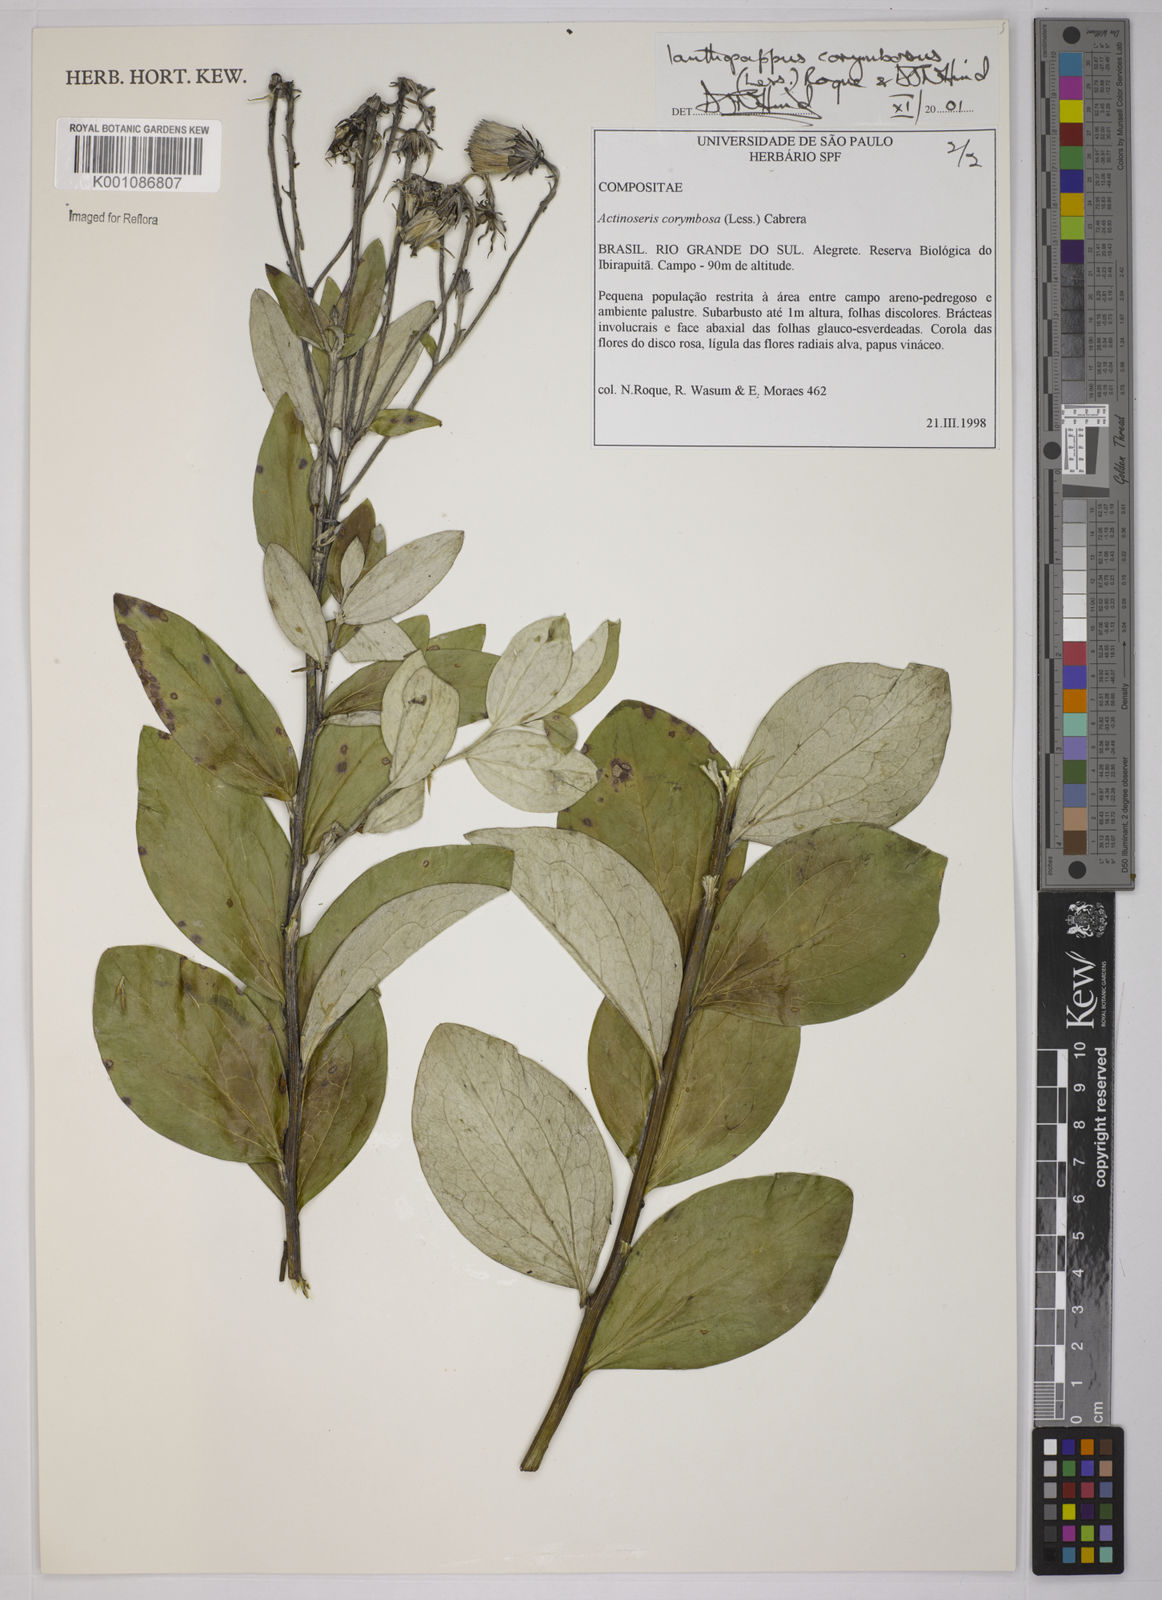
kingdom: Plantae
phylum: Tracheophyta
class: Magnoliopsida
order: Asterales
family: Asteraceae
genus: Ianthopappus
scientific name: Ianthopappus corymbosus
